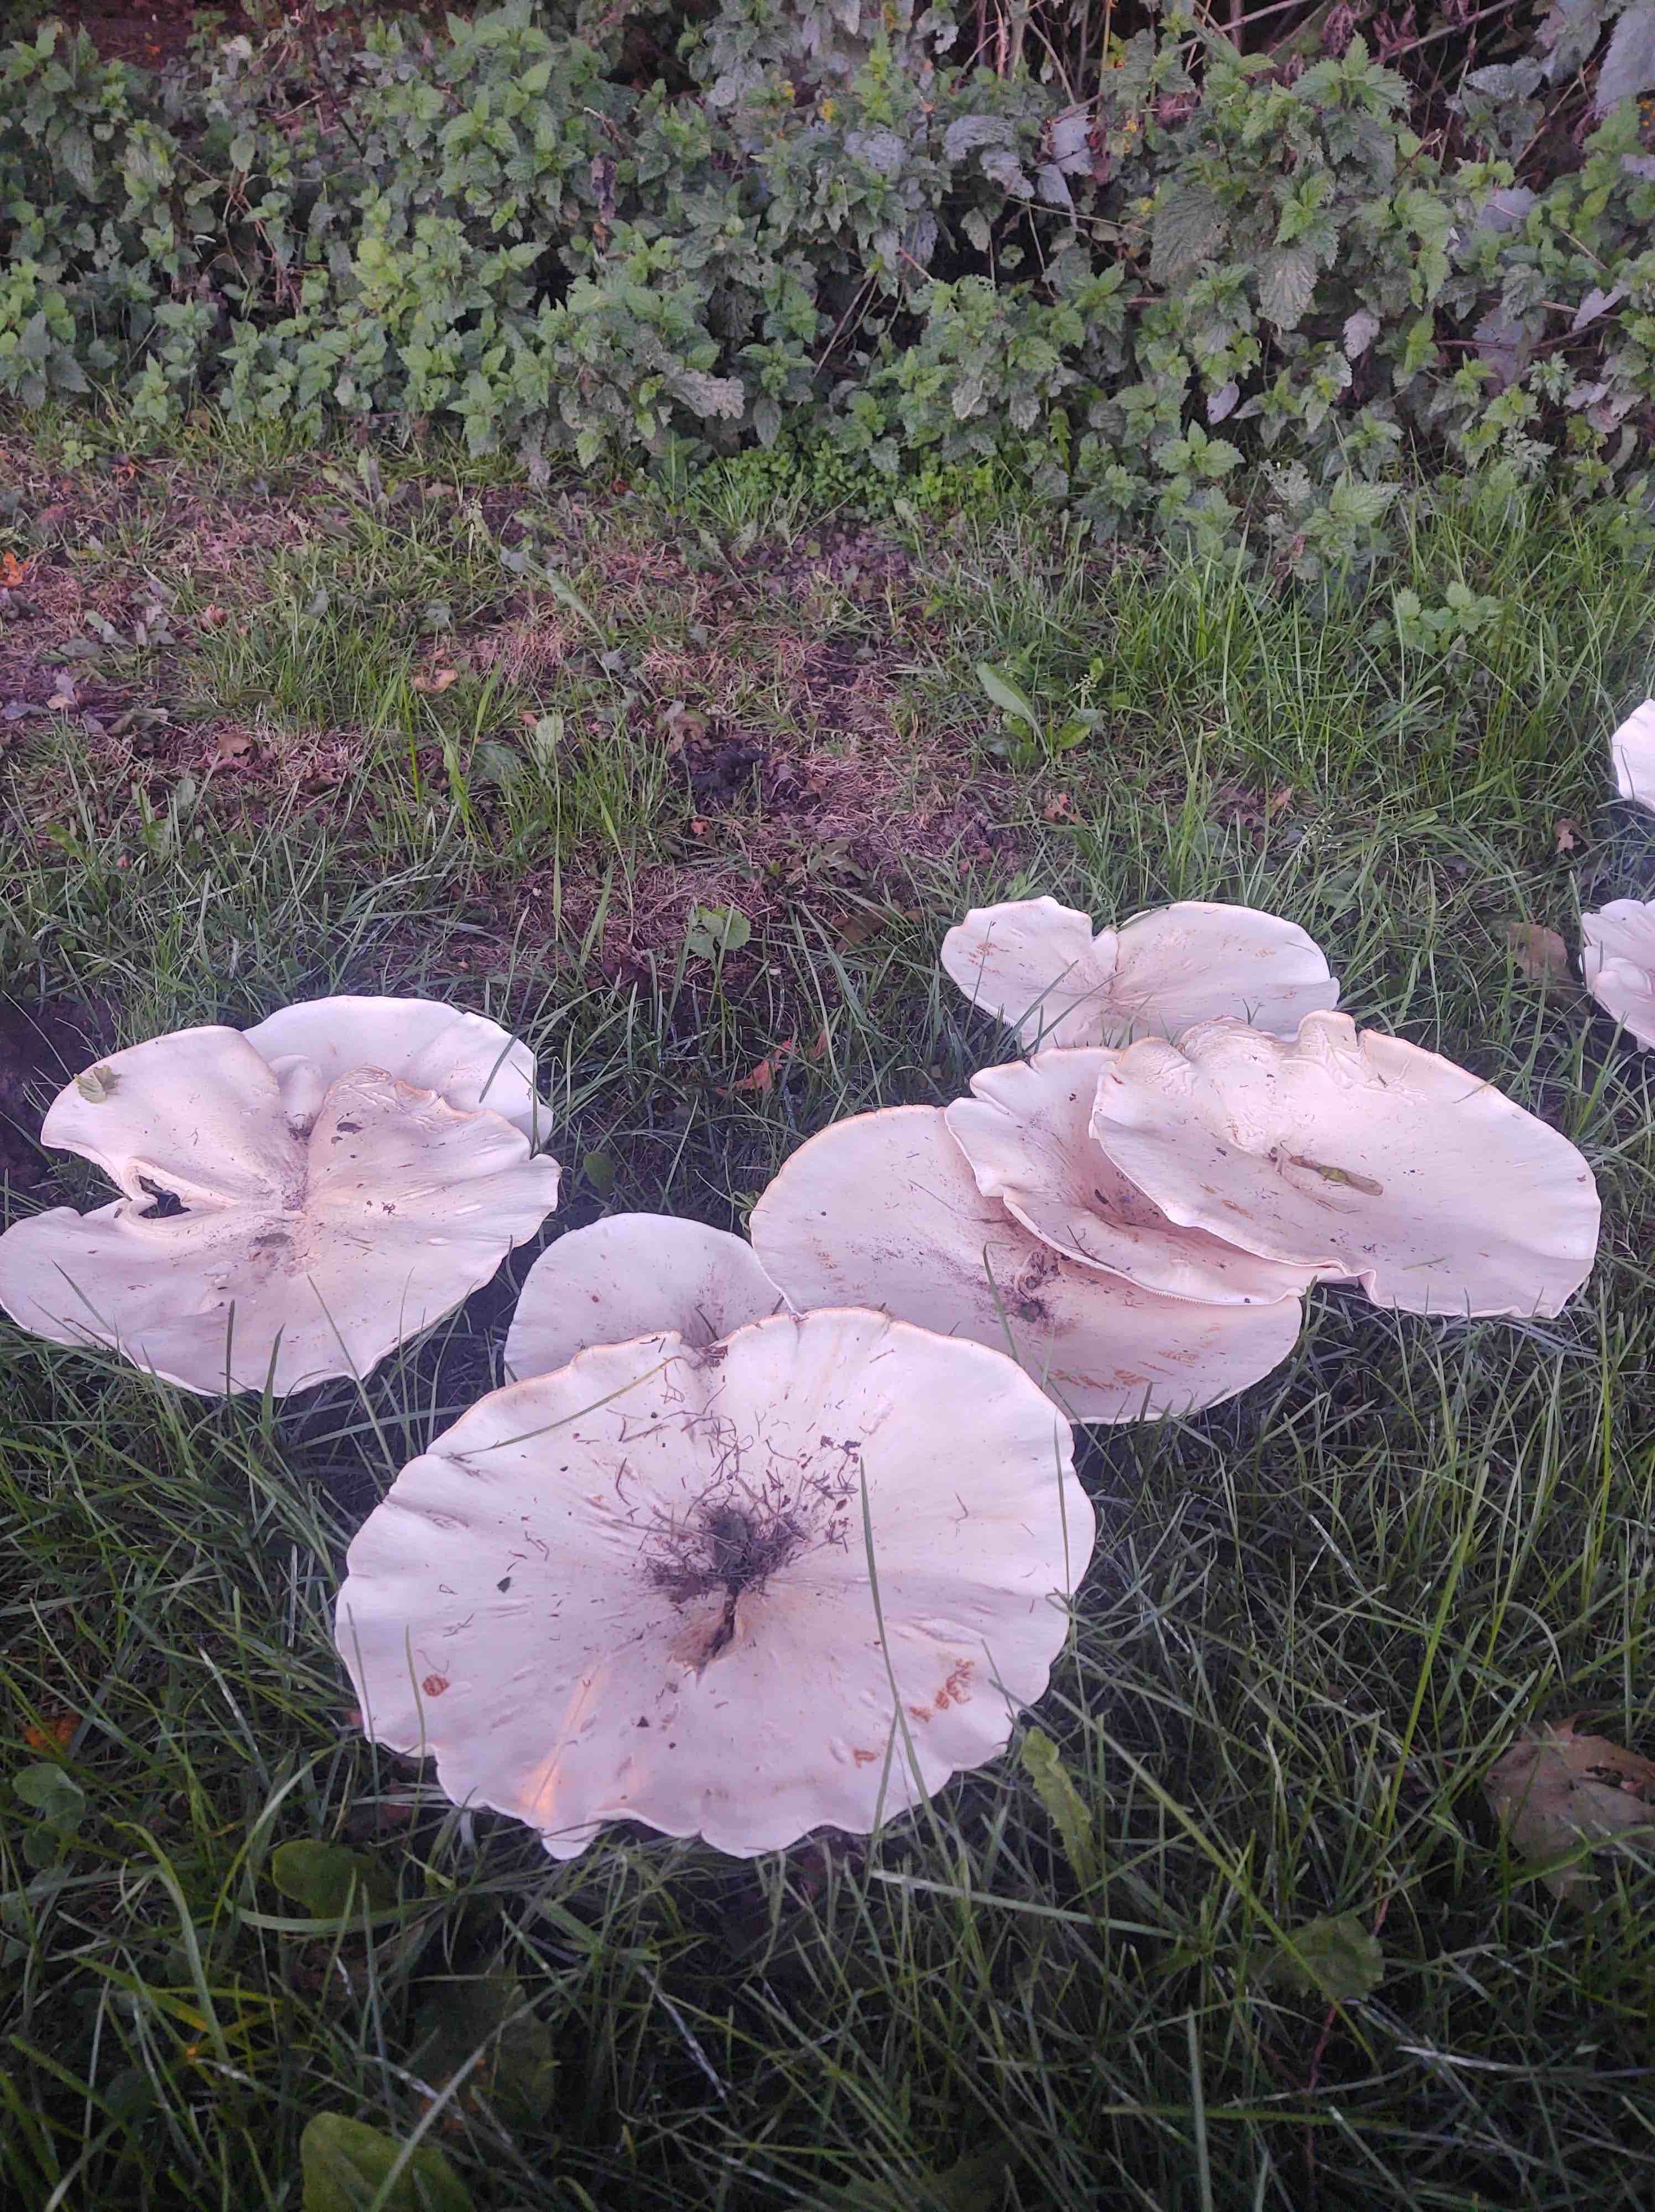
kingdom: Fungi
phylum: Basidiomycota
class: Agaricomycetes
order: Agaricales
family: Tricholomataceae
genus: Aspropaxillus
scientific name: Aspropaxillus giganteus
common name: kæmpe-tragtridderhat
